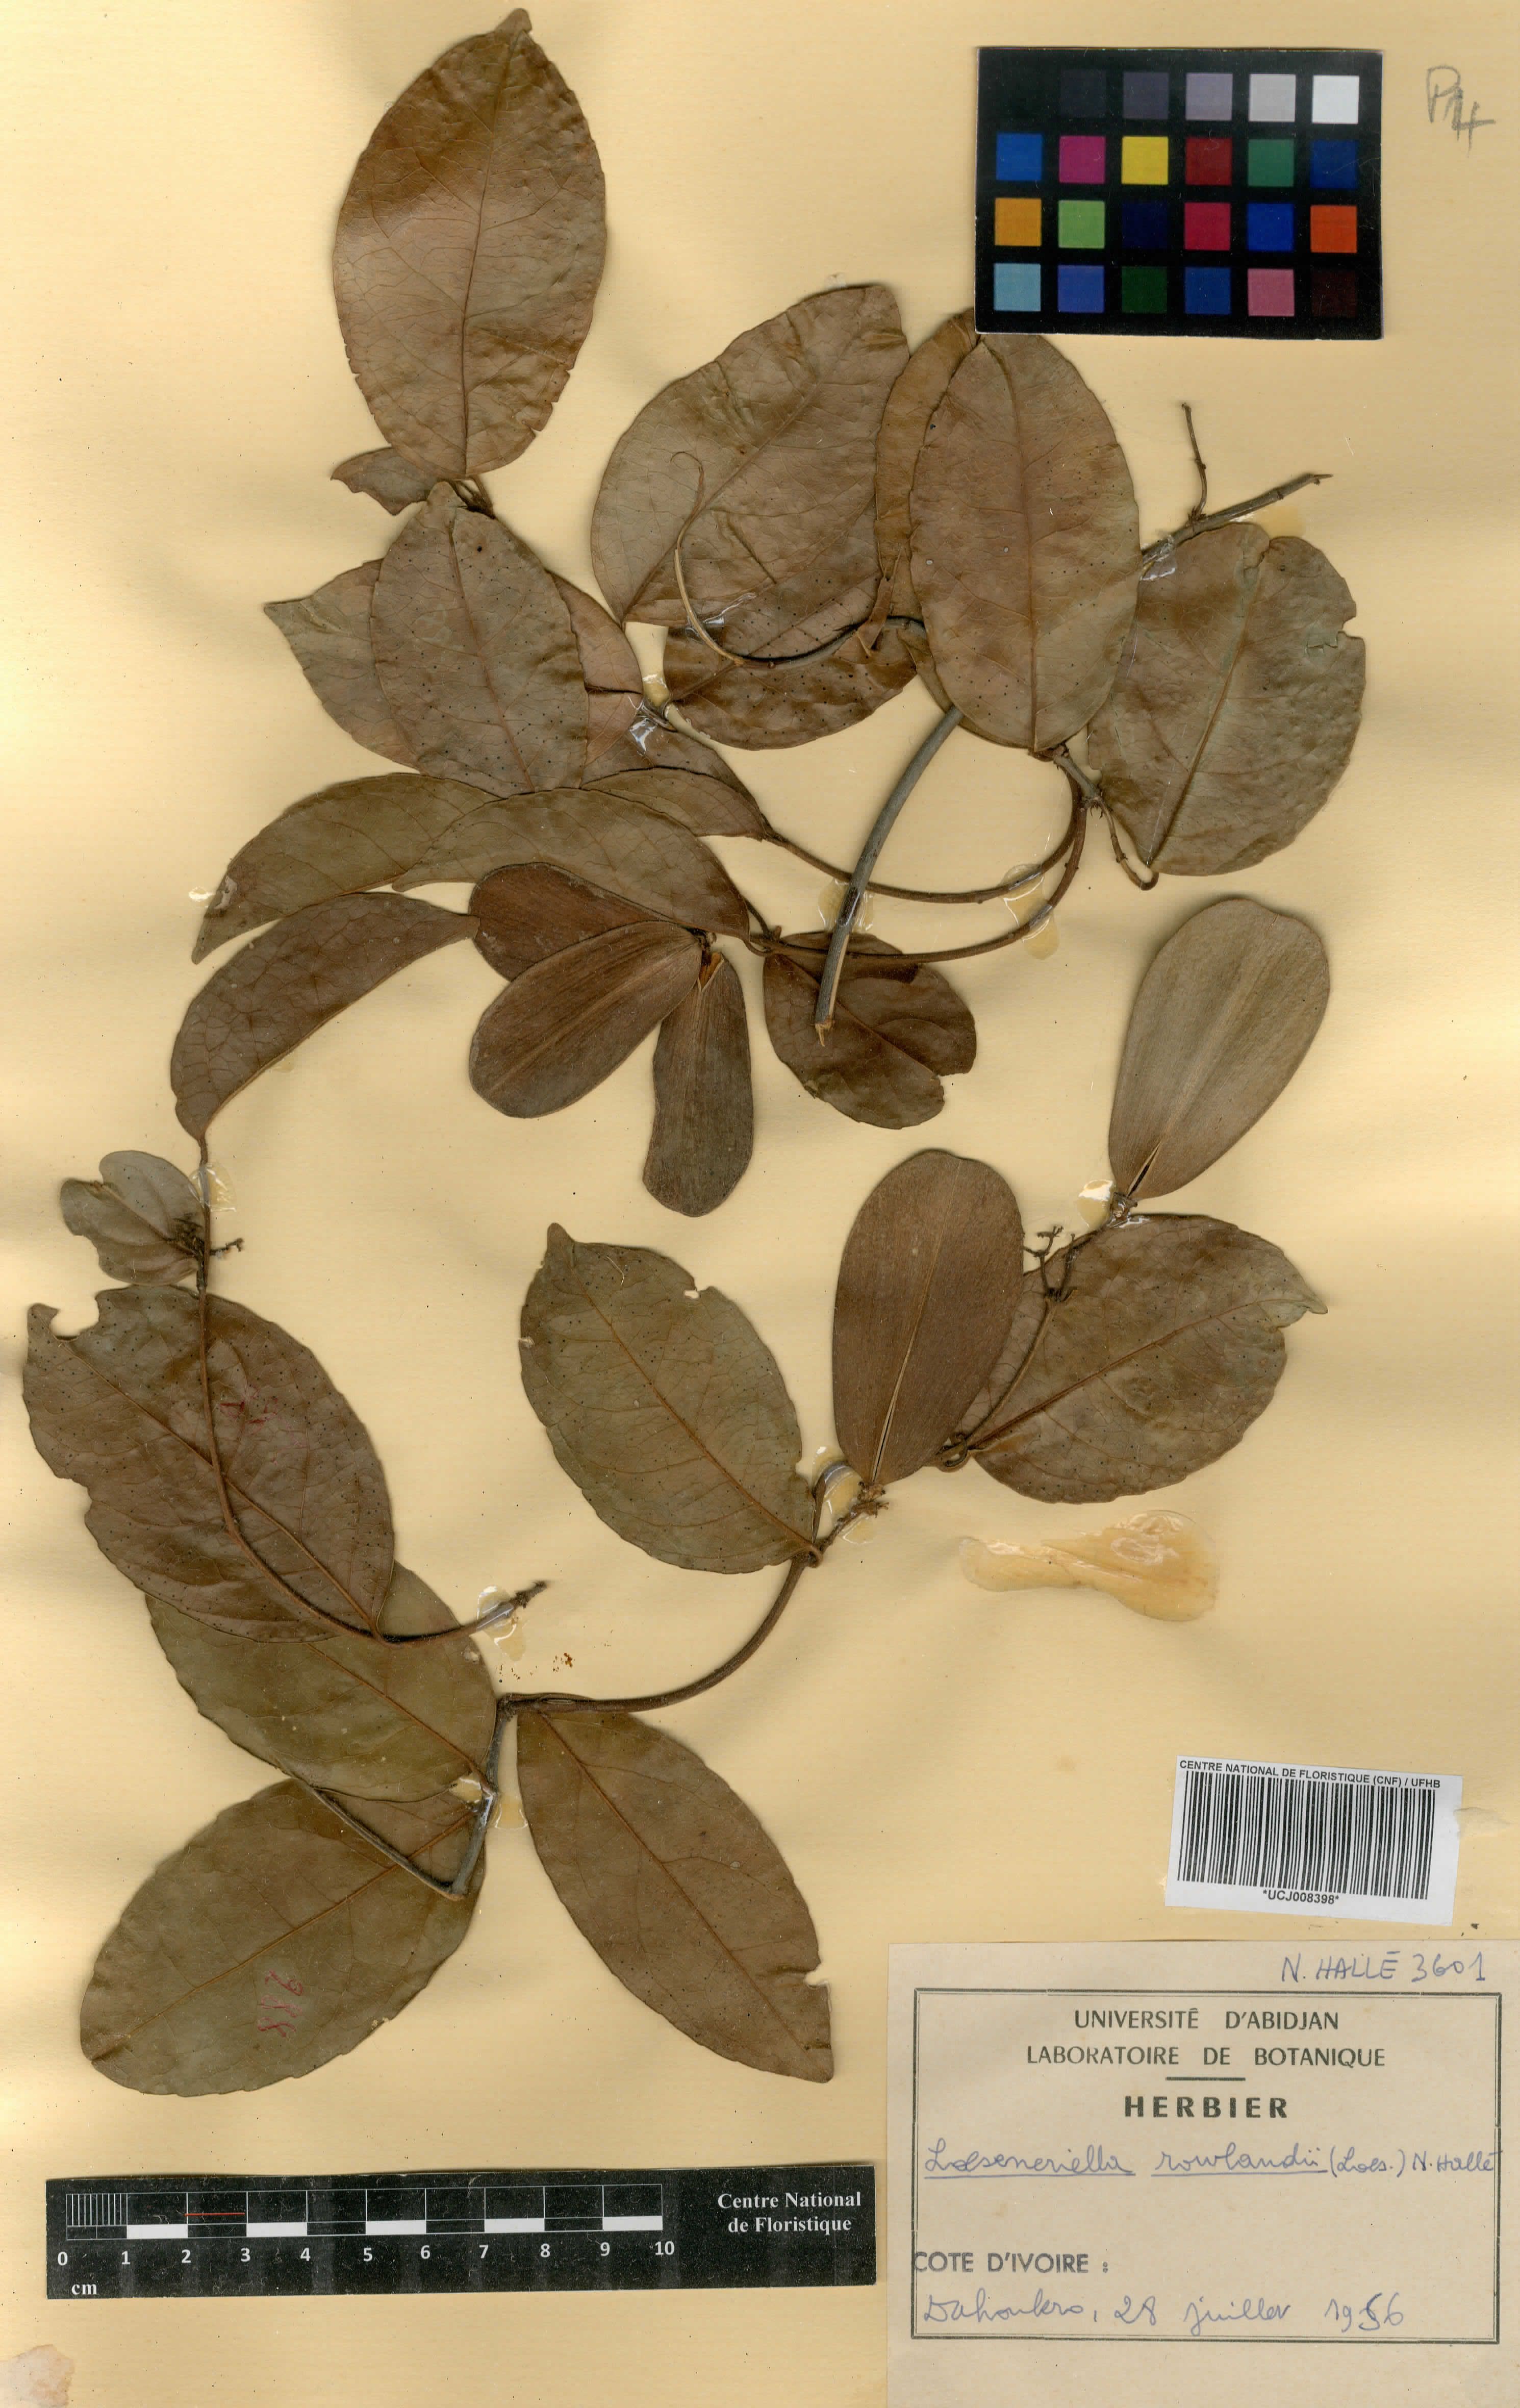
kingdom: Plantae
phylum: Tracheophyta
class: Magnoliopsida
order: Celastrales
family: Celastraceae
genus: Loeseneriella
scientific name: Loeseneriella rowlandii
